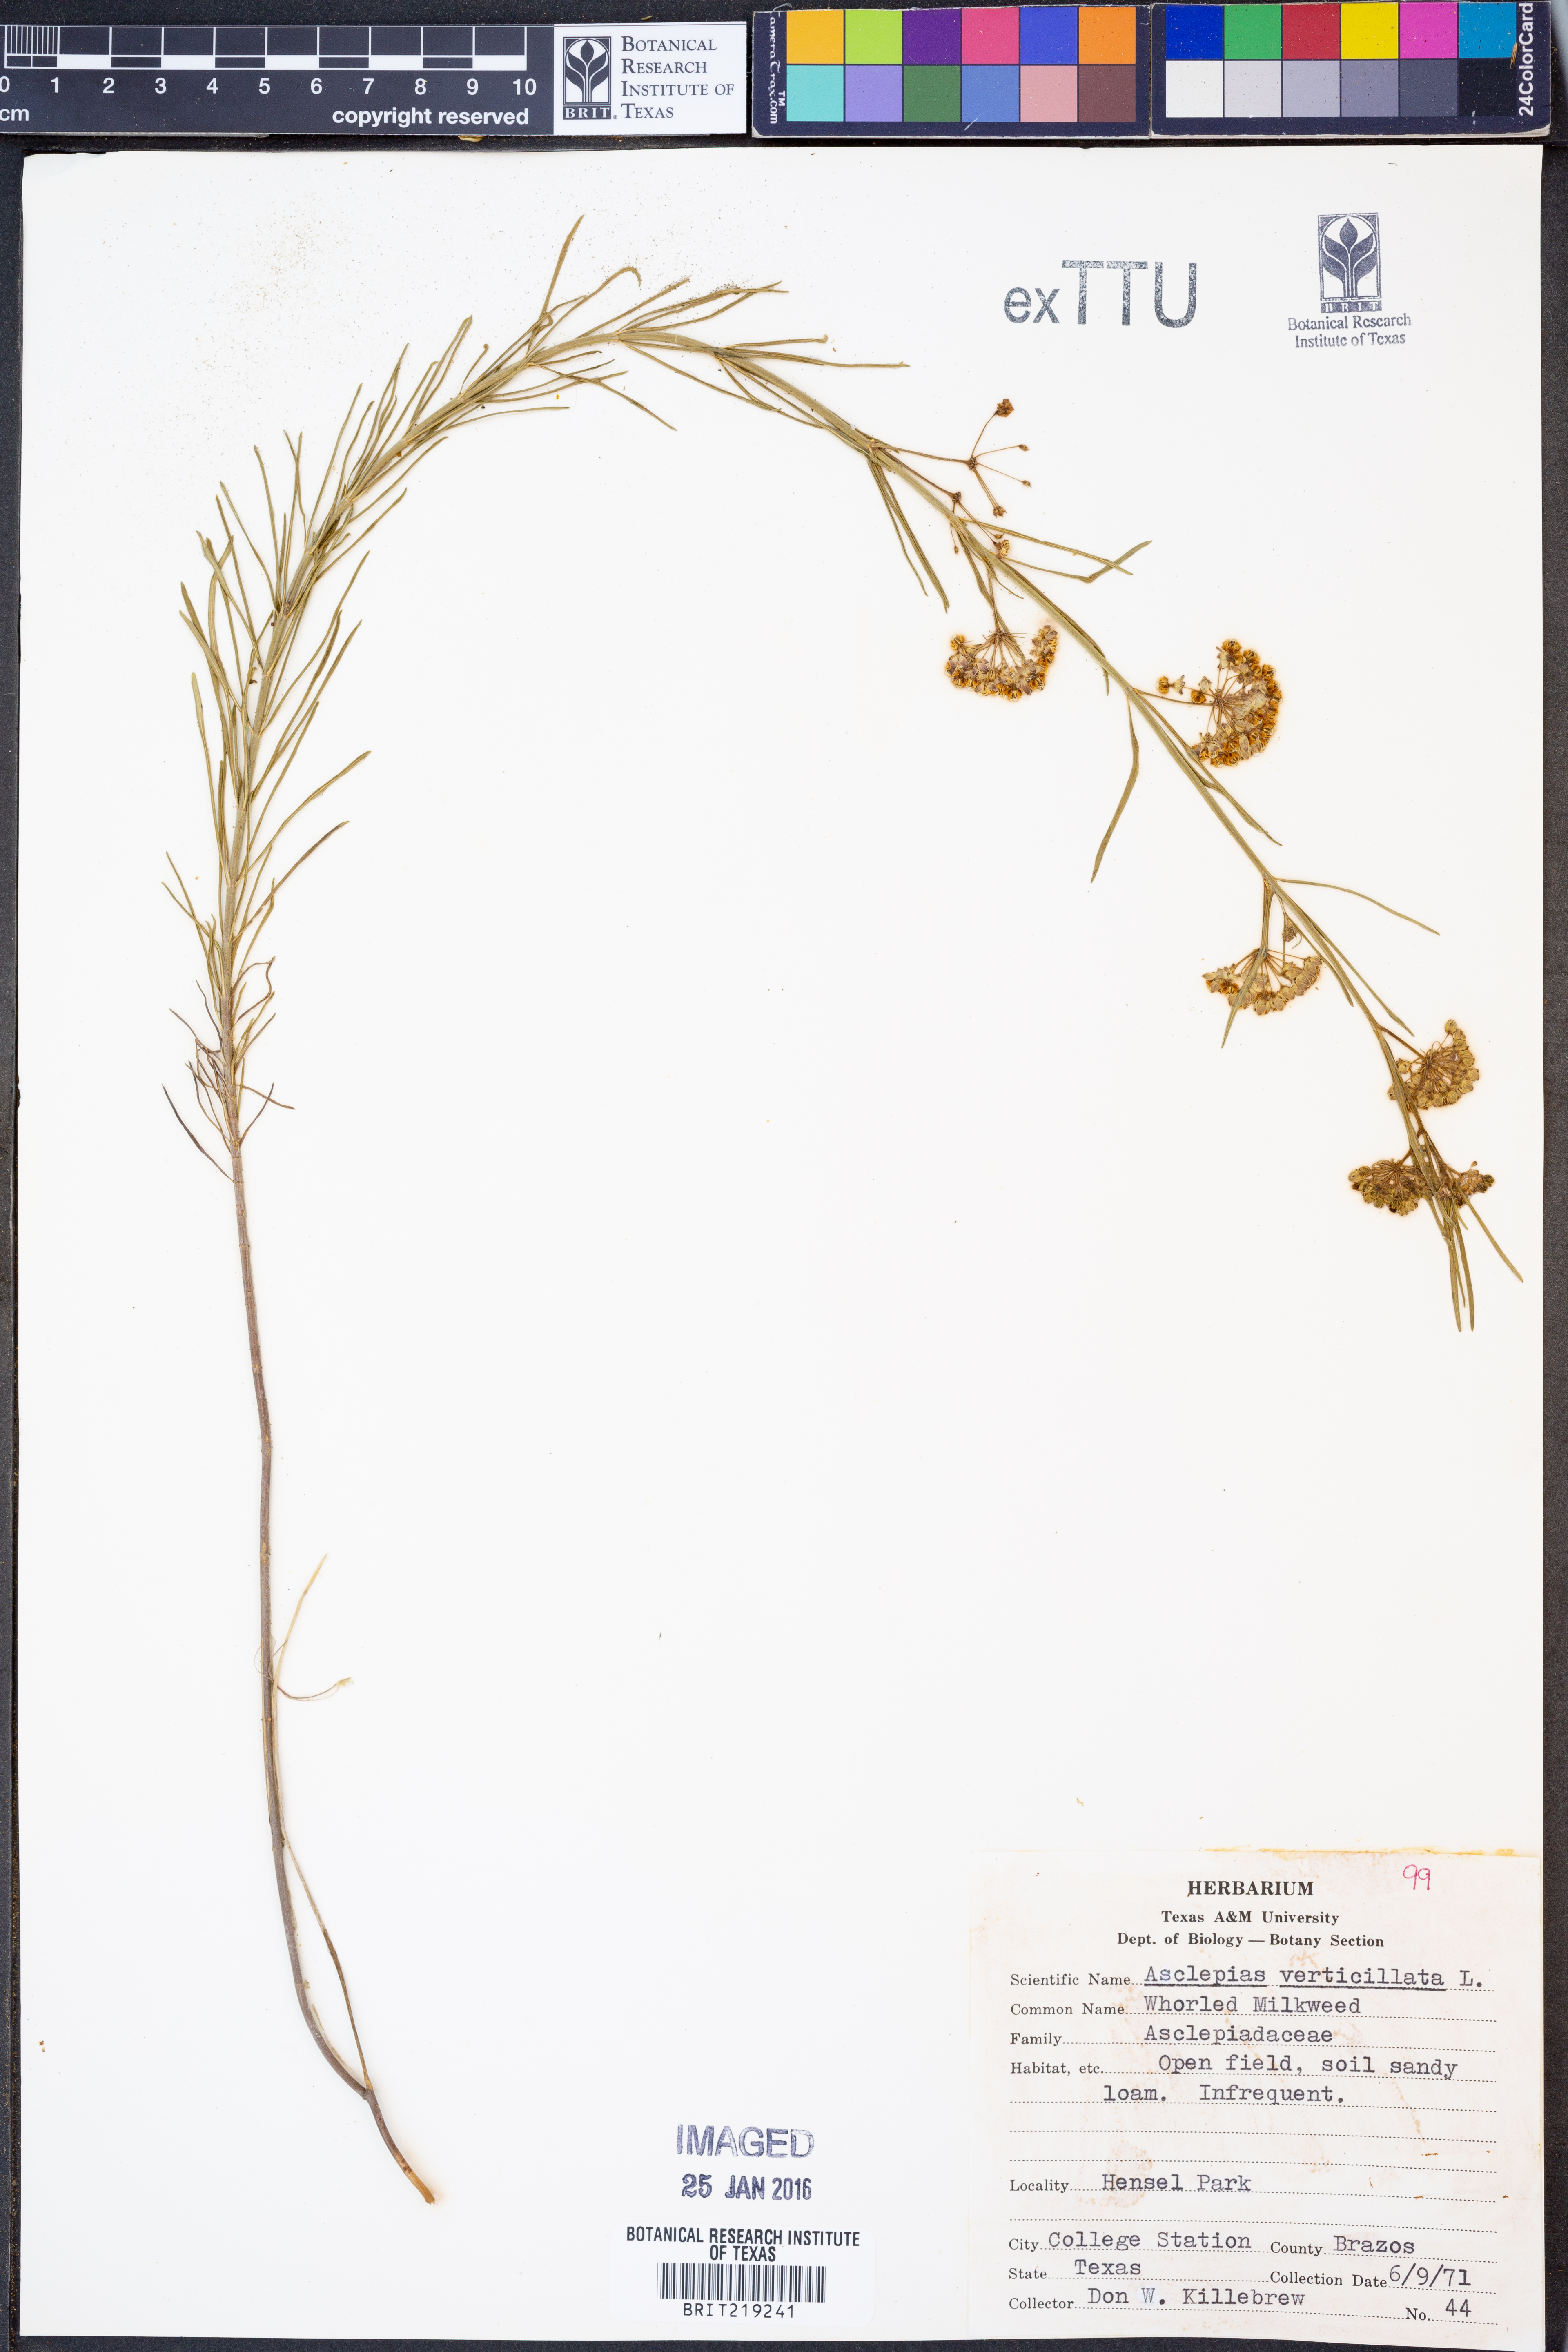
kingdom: Plantae
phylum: Tracheophyta
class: Magnoliopsida
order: Gentianales
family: Apocynaceae
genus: Asclepias
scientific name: Asclepias verticillata
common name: Eastern whorled milkweed
